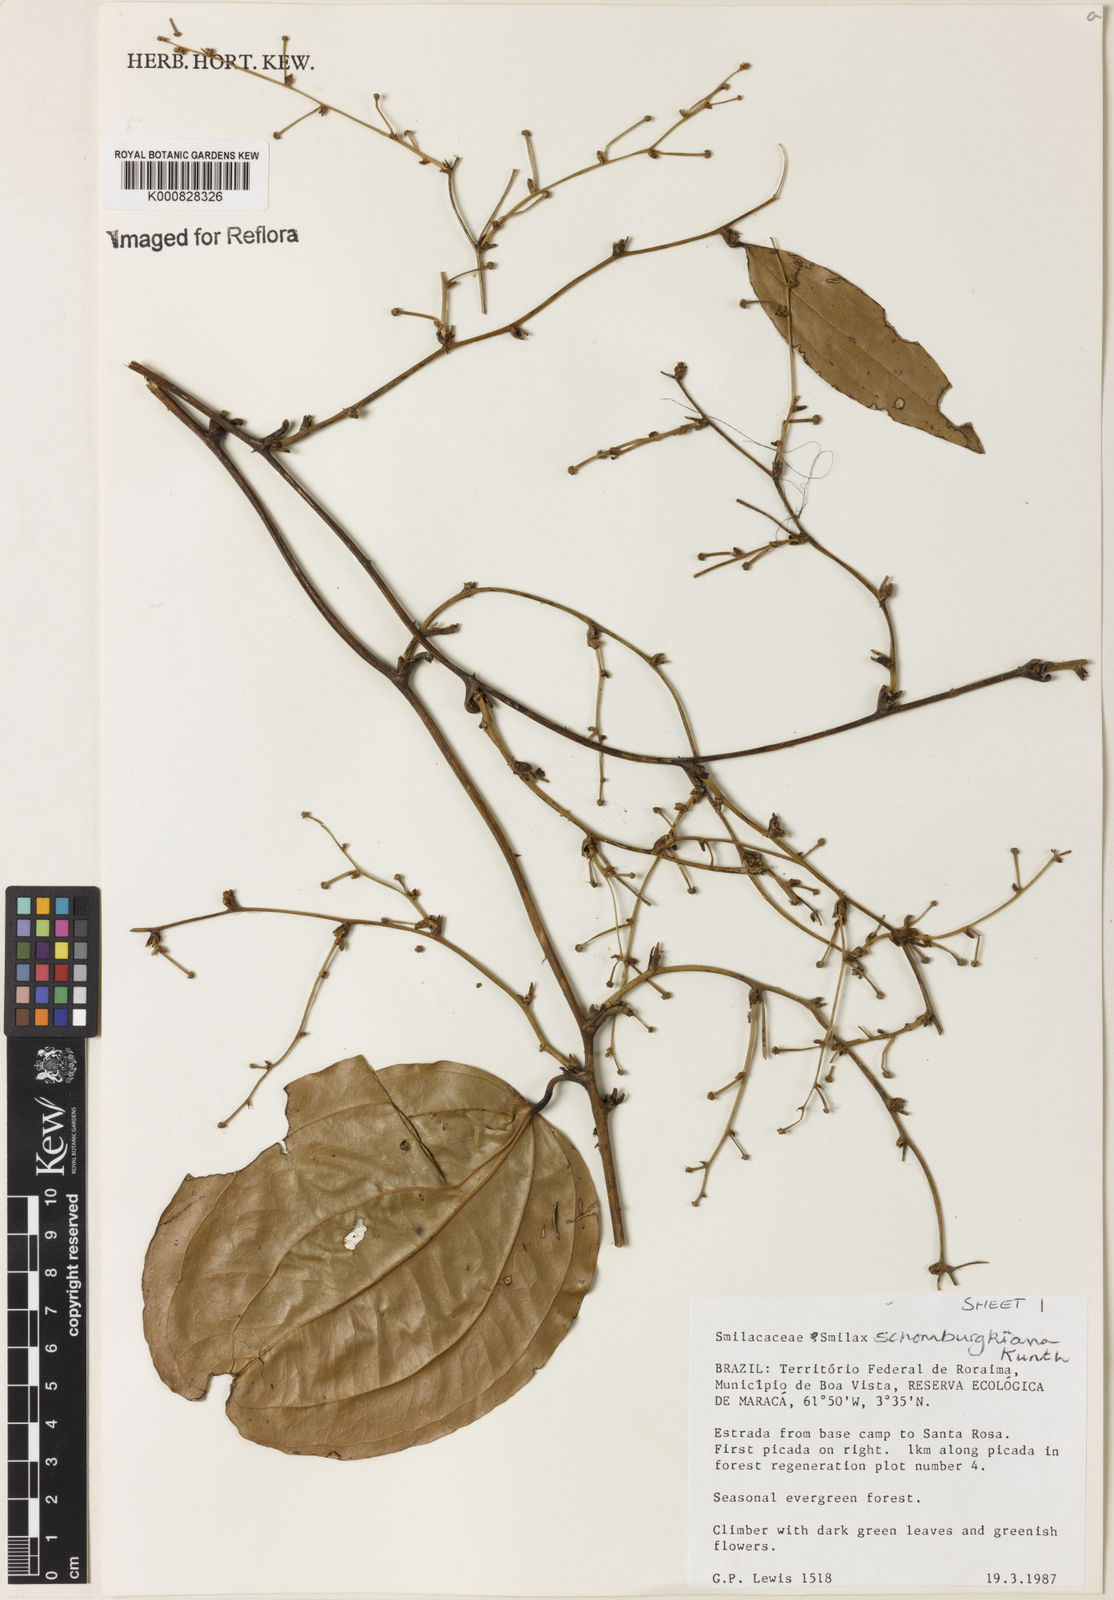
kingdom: Plantae
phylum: Tracheophyta
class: Liliopsida
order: Liliales
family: Smilacaceae
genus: Smilax
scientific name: Smilax schomburgkiana
